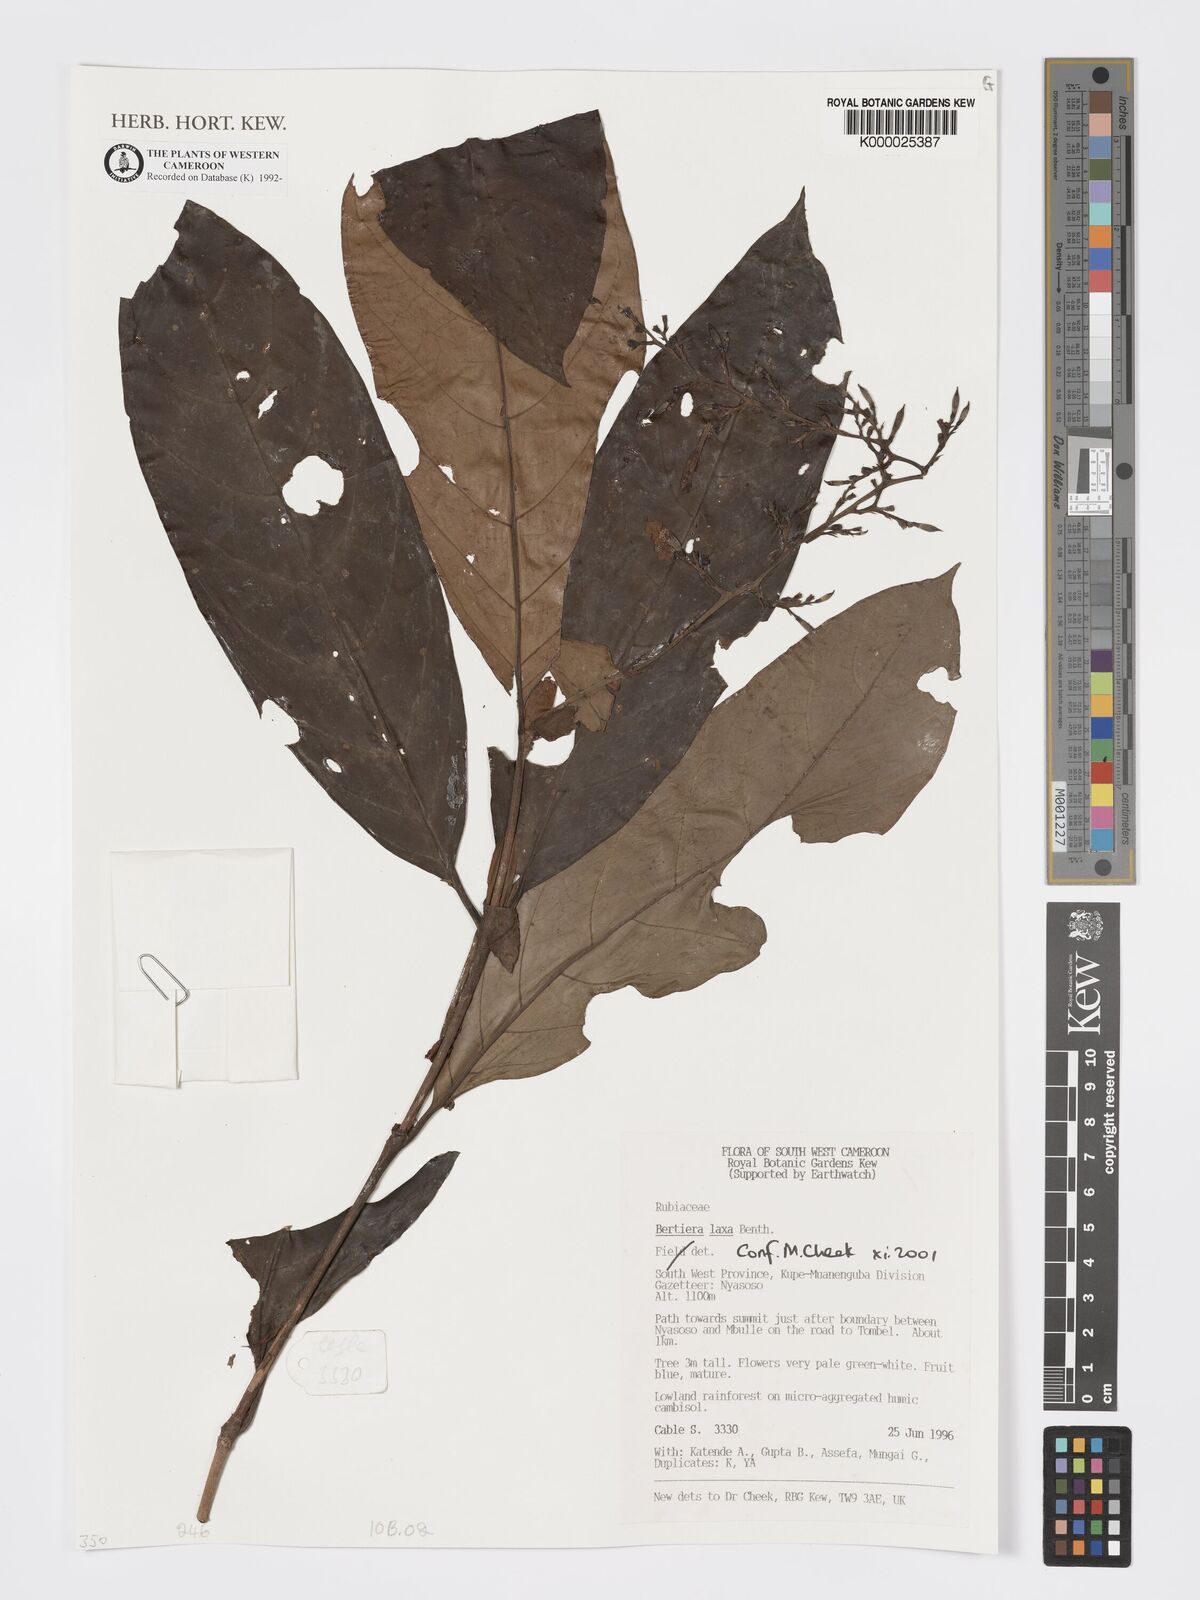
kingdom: Plantae
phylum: Tracheophyta
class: Magnoliopsida
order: Gentianales
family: Rubiaceae
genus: Bertiera
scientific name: Bertiera laxa
